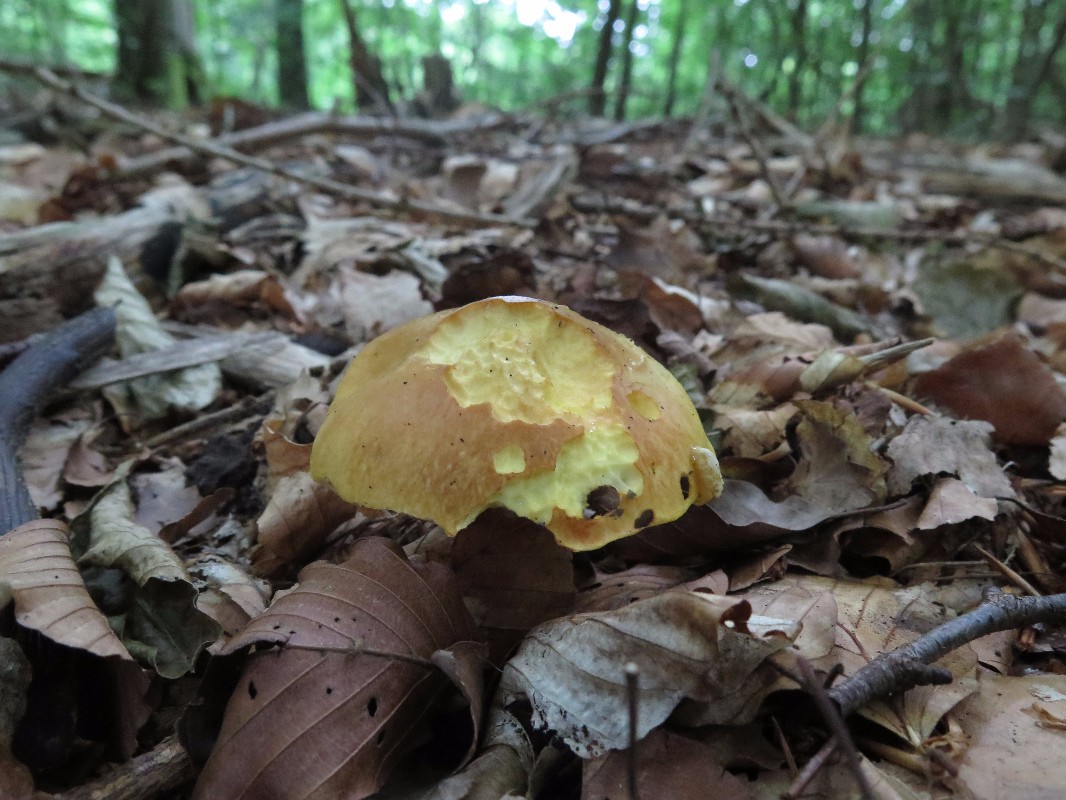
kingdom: Fungi
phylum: Basidiomycota
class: Agaricomycetes
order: Boletales
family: Suillaceae
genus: Suillus
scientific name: Suillus grevillei
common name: lærke-slimrørhat
